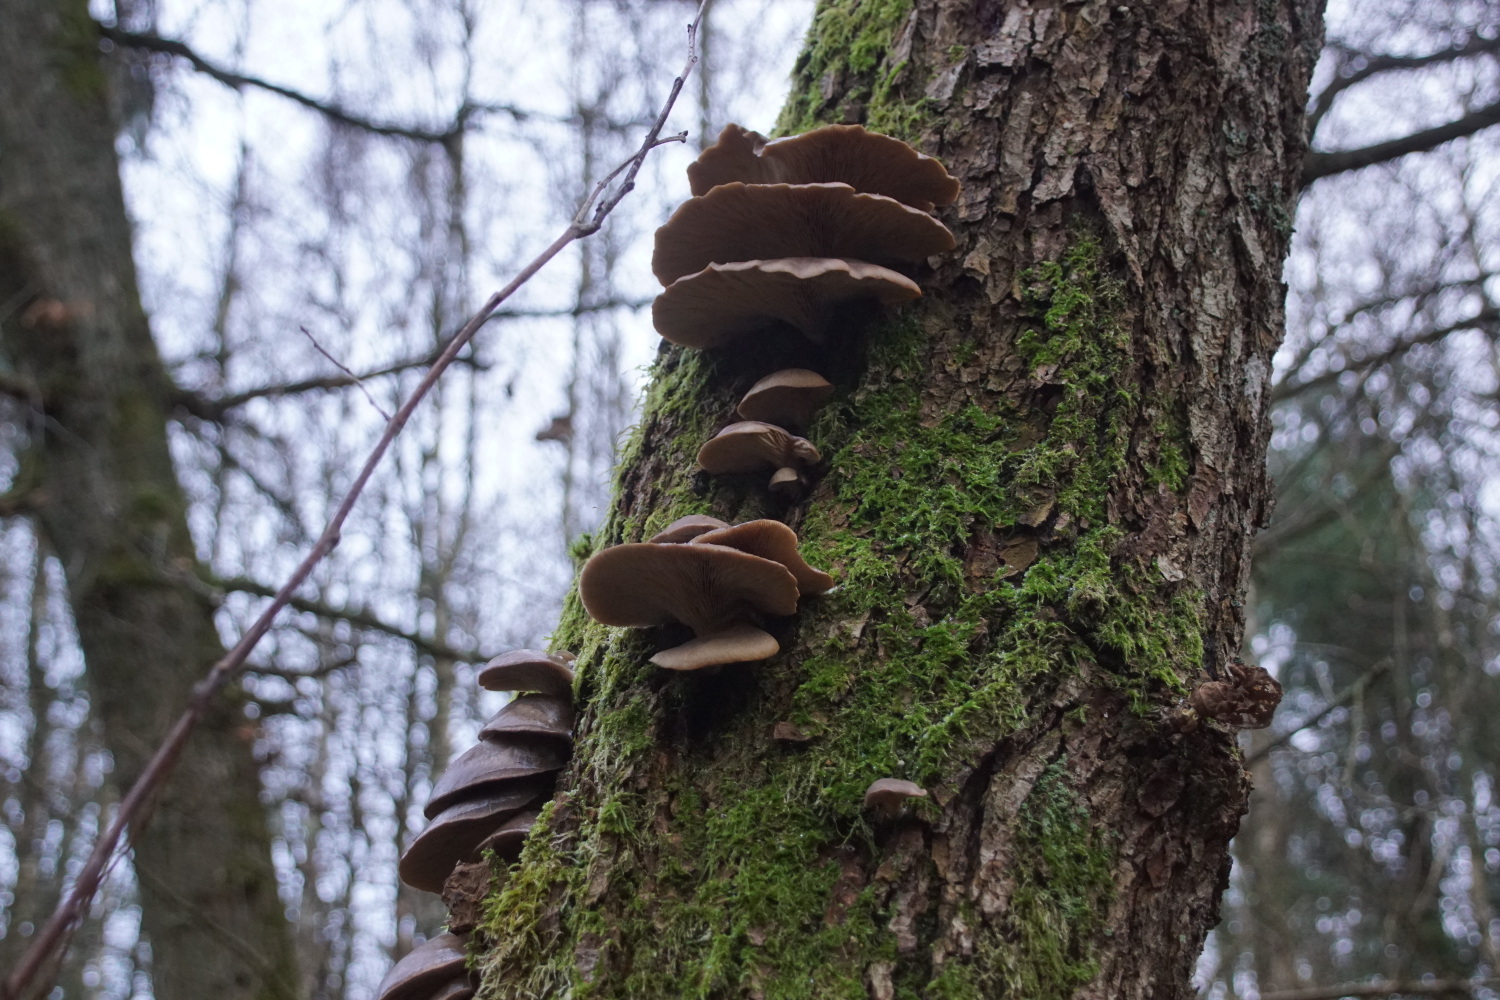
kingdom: Fungi
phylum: Basidiomycota
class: Agaricomycetes
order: Agaricales
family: Pleurotaceae
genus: Pleurotus
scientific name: Pleurotus ostreatus
